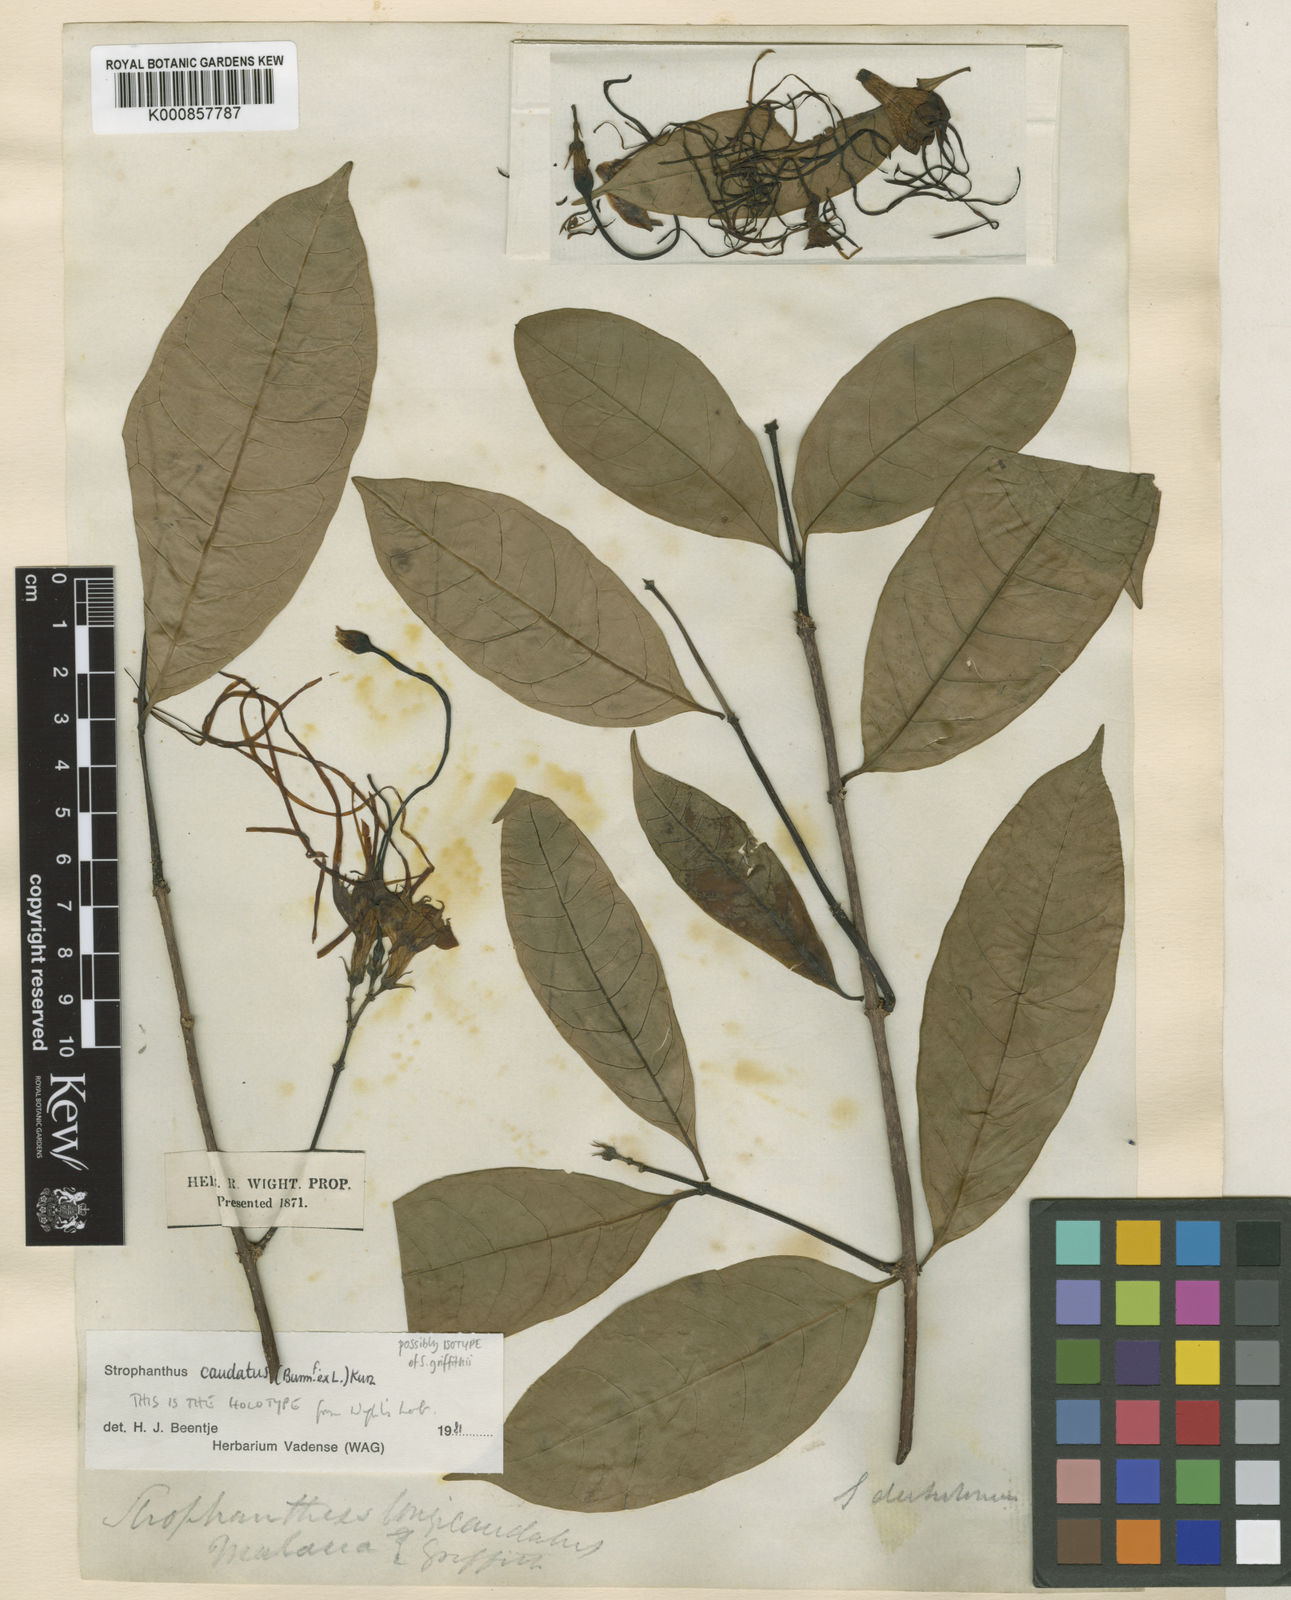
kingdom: Plantae
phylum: Tracheophyta
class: Magnoliopsida
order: Gentianales
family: Apocynaceae
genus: Strophanthus
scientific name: Strophanthus caudatus
